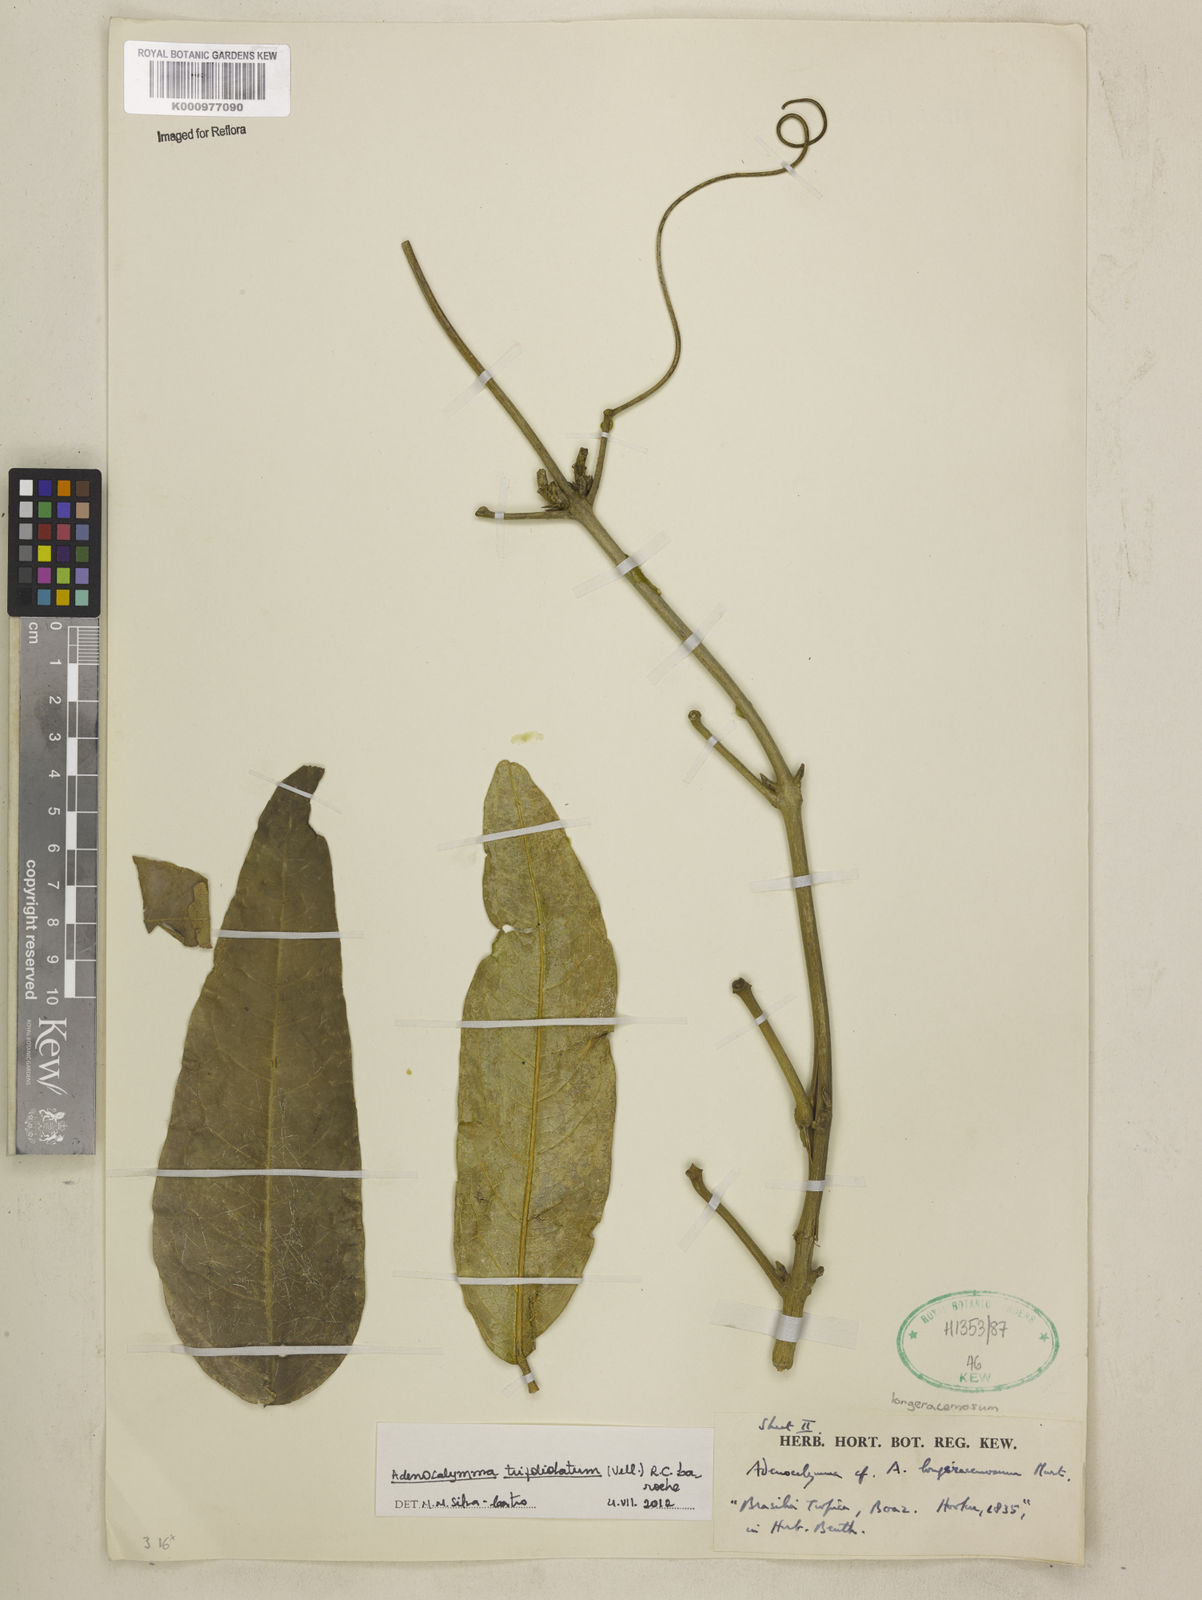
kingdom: Plantae
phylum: Tracheophyta
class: Magnoliopsida
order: Lamiales
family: Bignoniaceae
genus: Adenocalymma
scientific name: Adenocalymma trifoliatum
